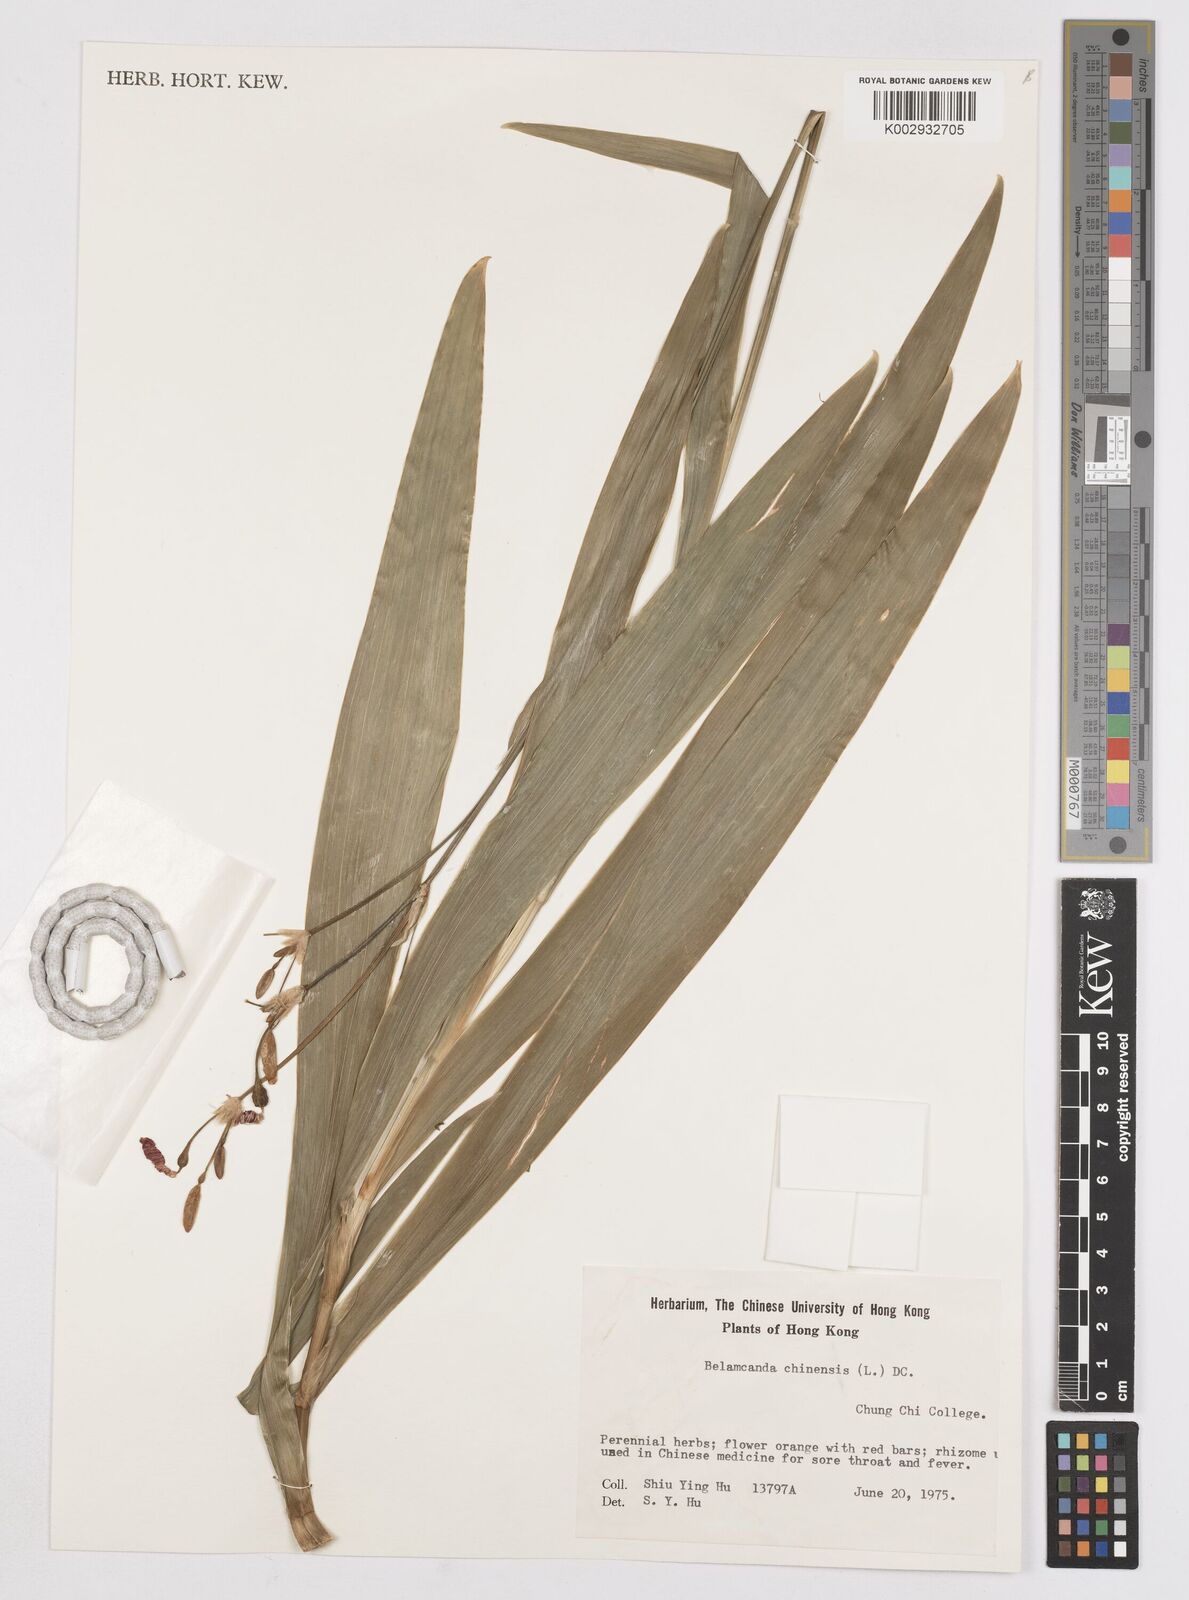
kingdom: Plantae
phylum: Tracheophyta
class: Liliopsida
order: Asparagales
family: Iridaceae
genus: Iris
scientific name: Iris
